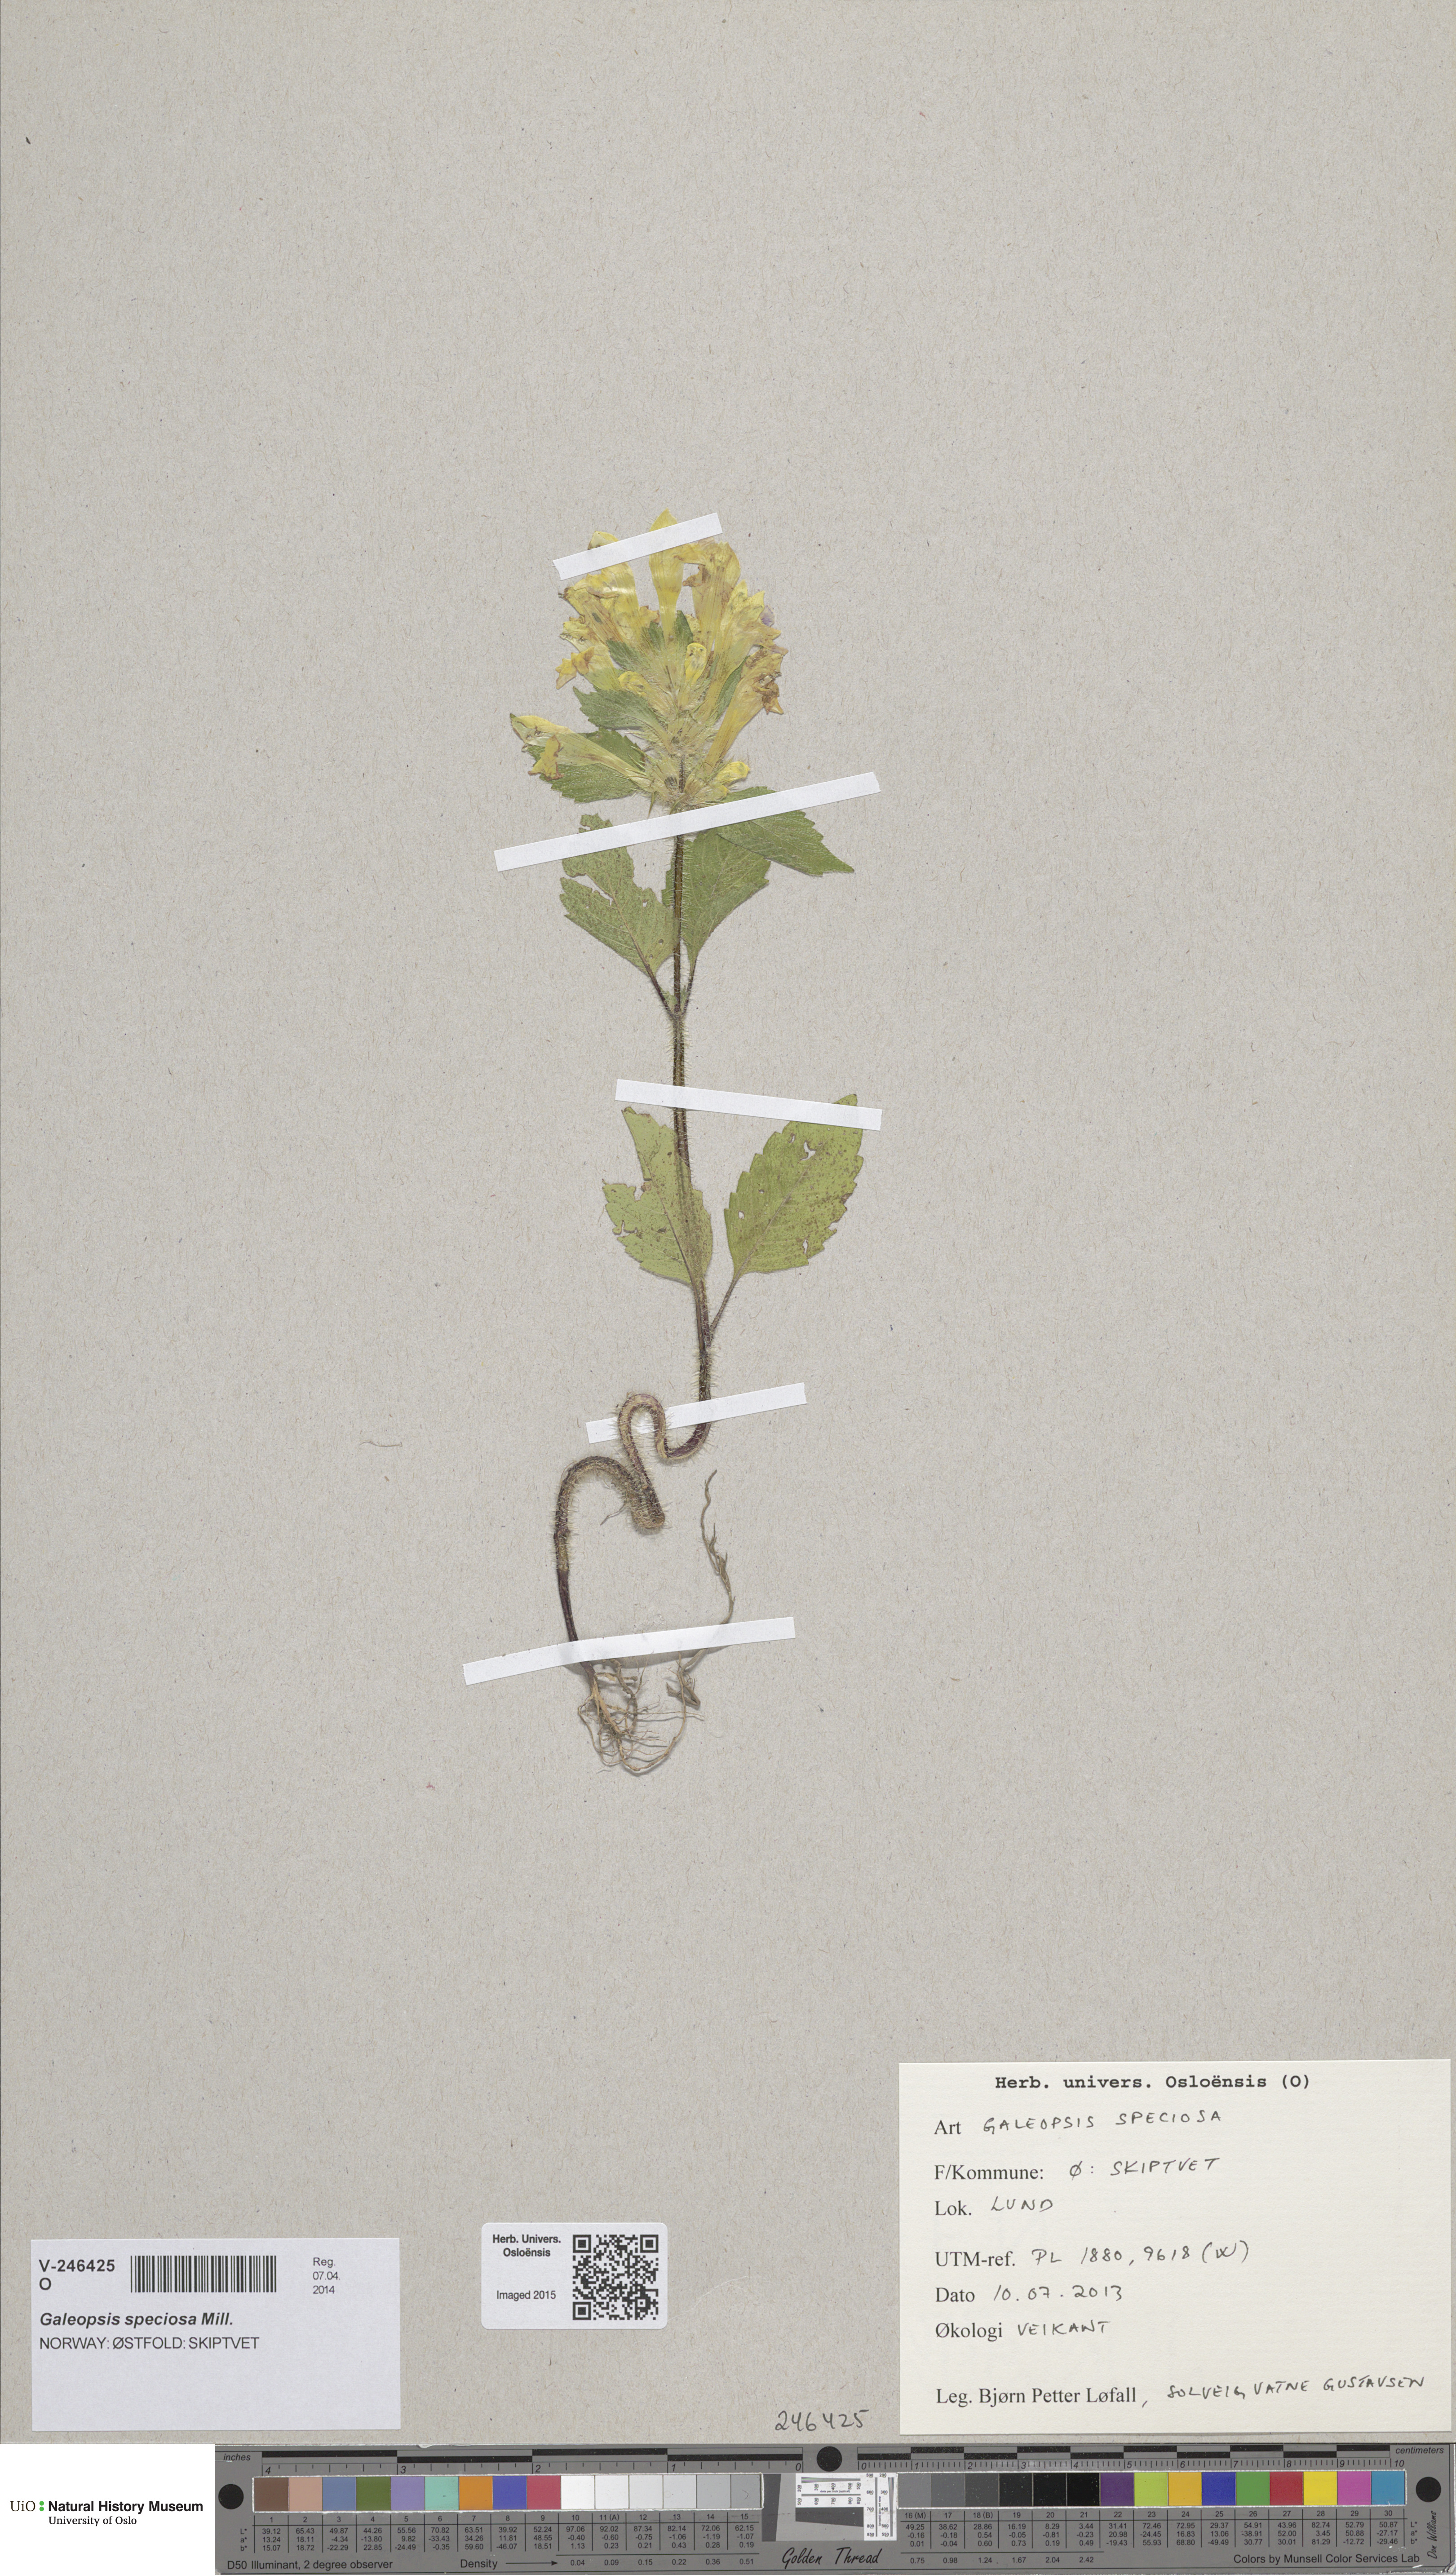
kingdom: Plantae
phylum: Tracheophyta
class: Magnoliopsida
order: Lamiales
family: Lamiaceae
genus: Galeopsis
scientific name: Galeopsis speciosa
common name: Large-flowered hemp-nettle
